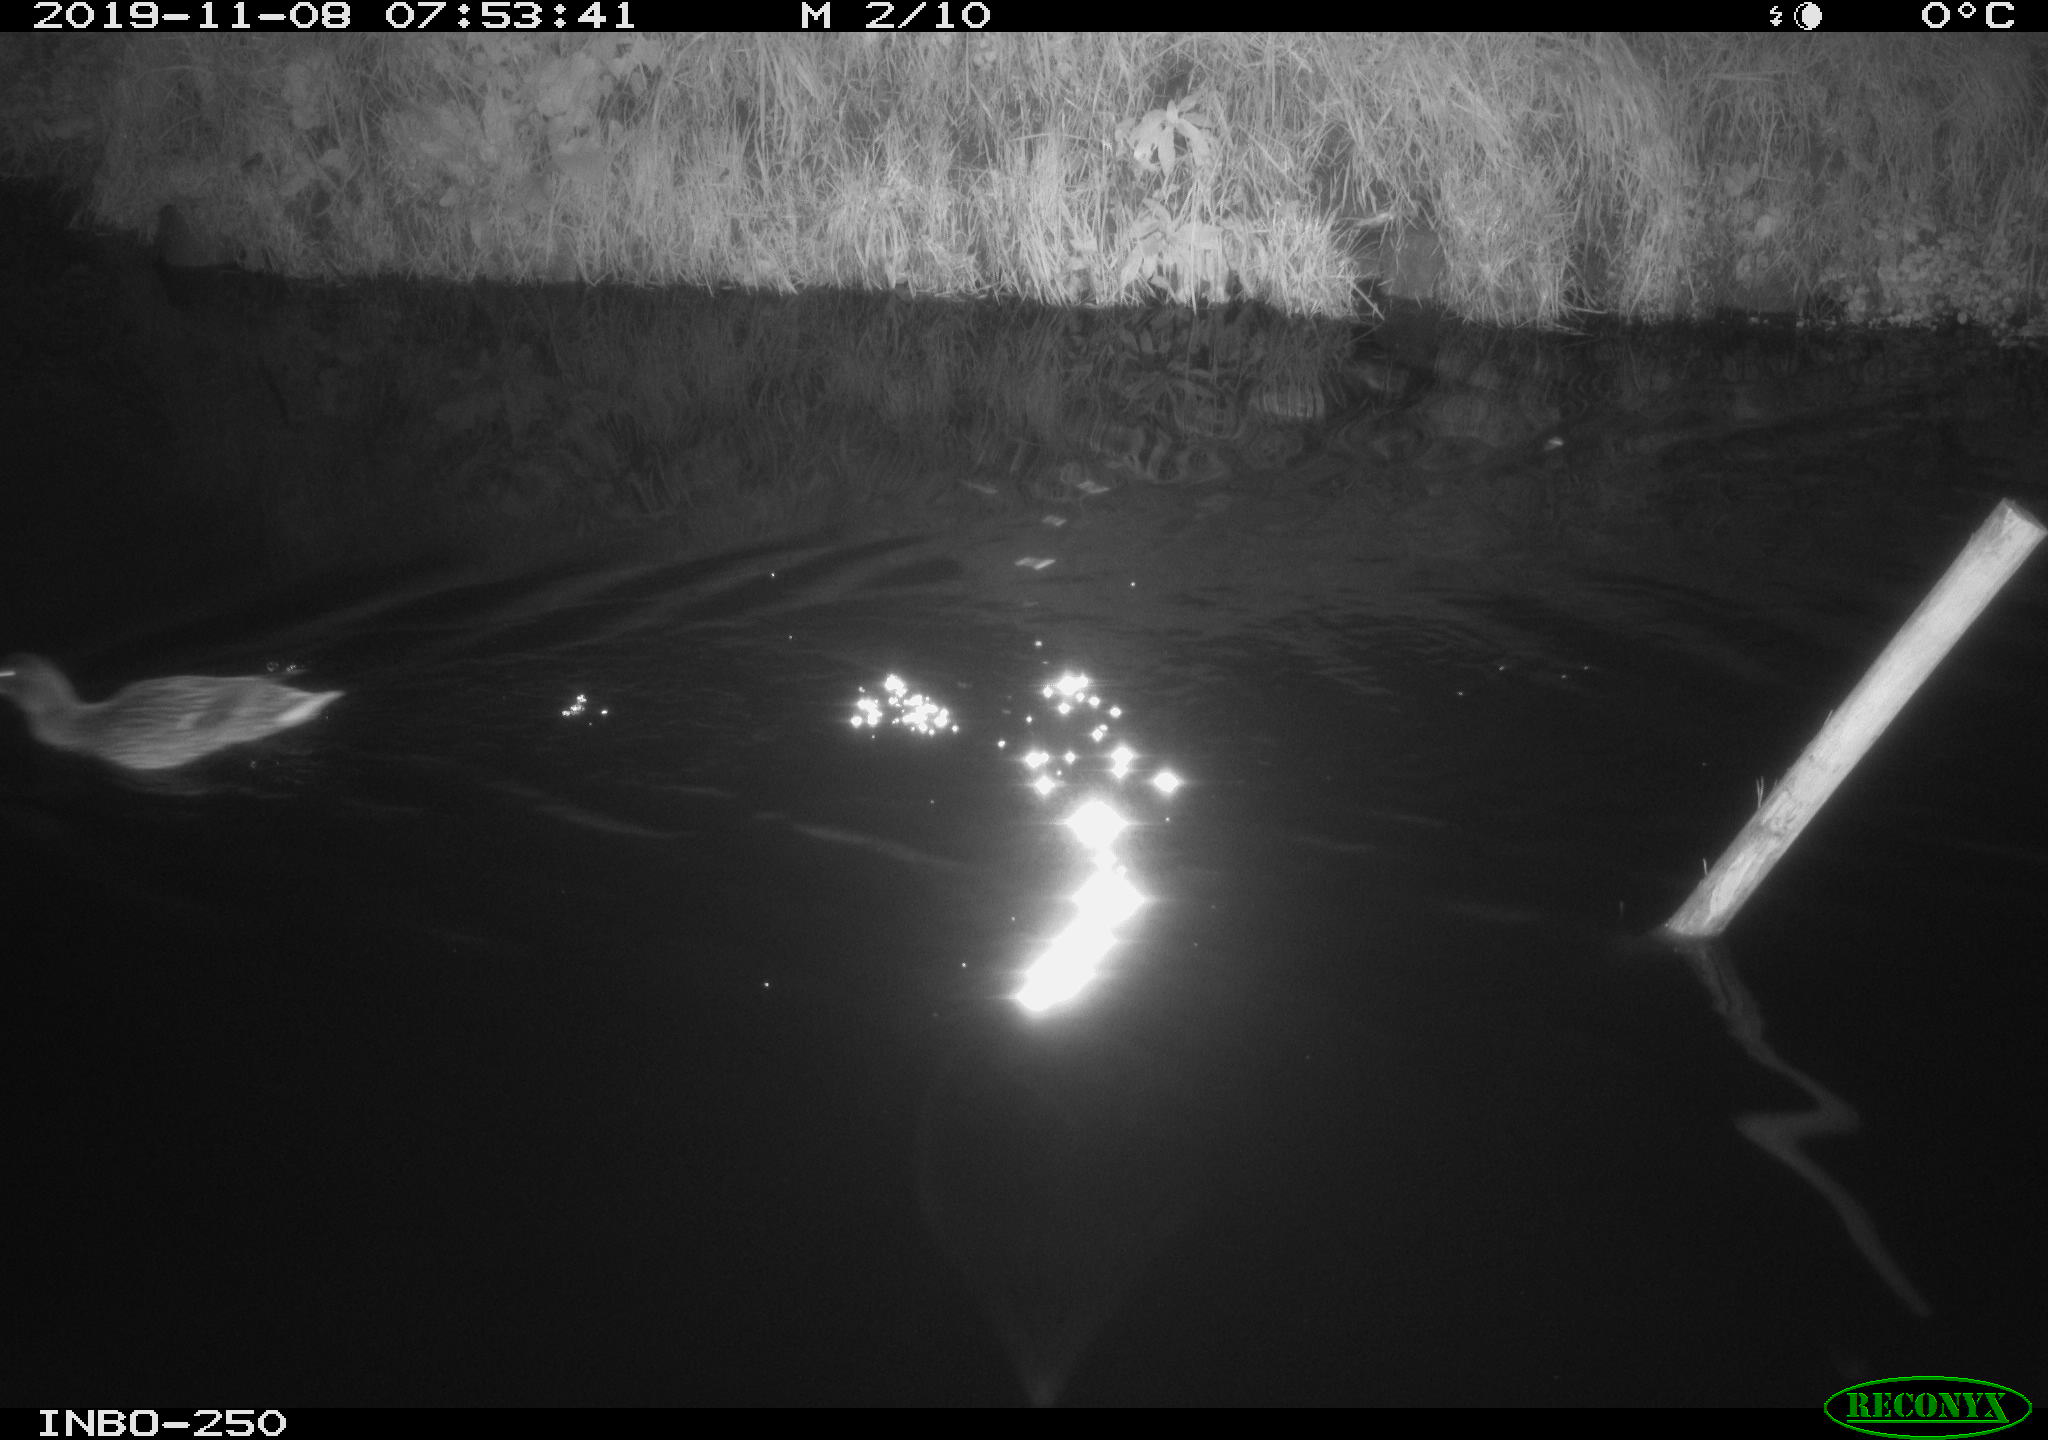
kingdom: Animalia
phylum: Chordata
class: Aves
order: Anseriformes
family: Anatidae
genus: Anas
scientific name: Anas platyrhynchos
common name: Mallard
